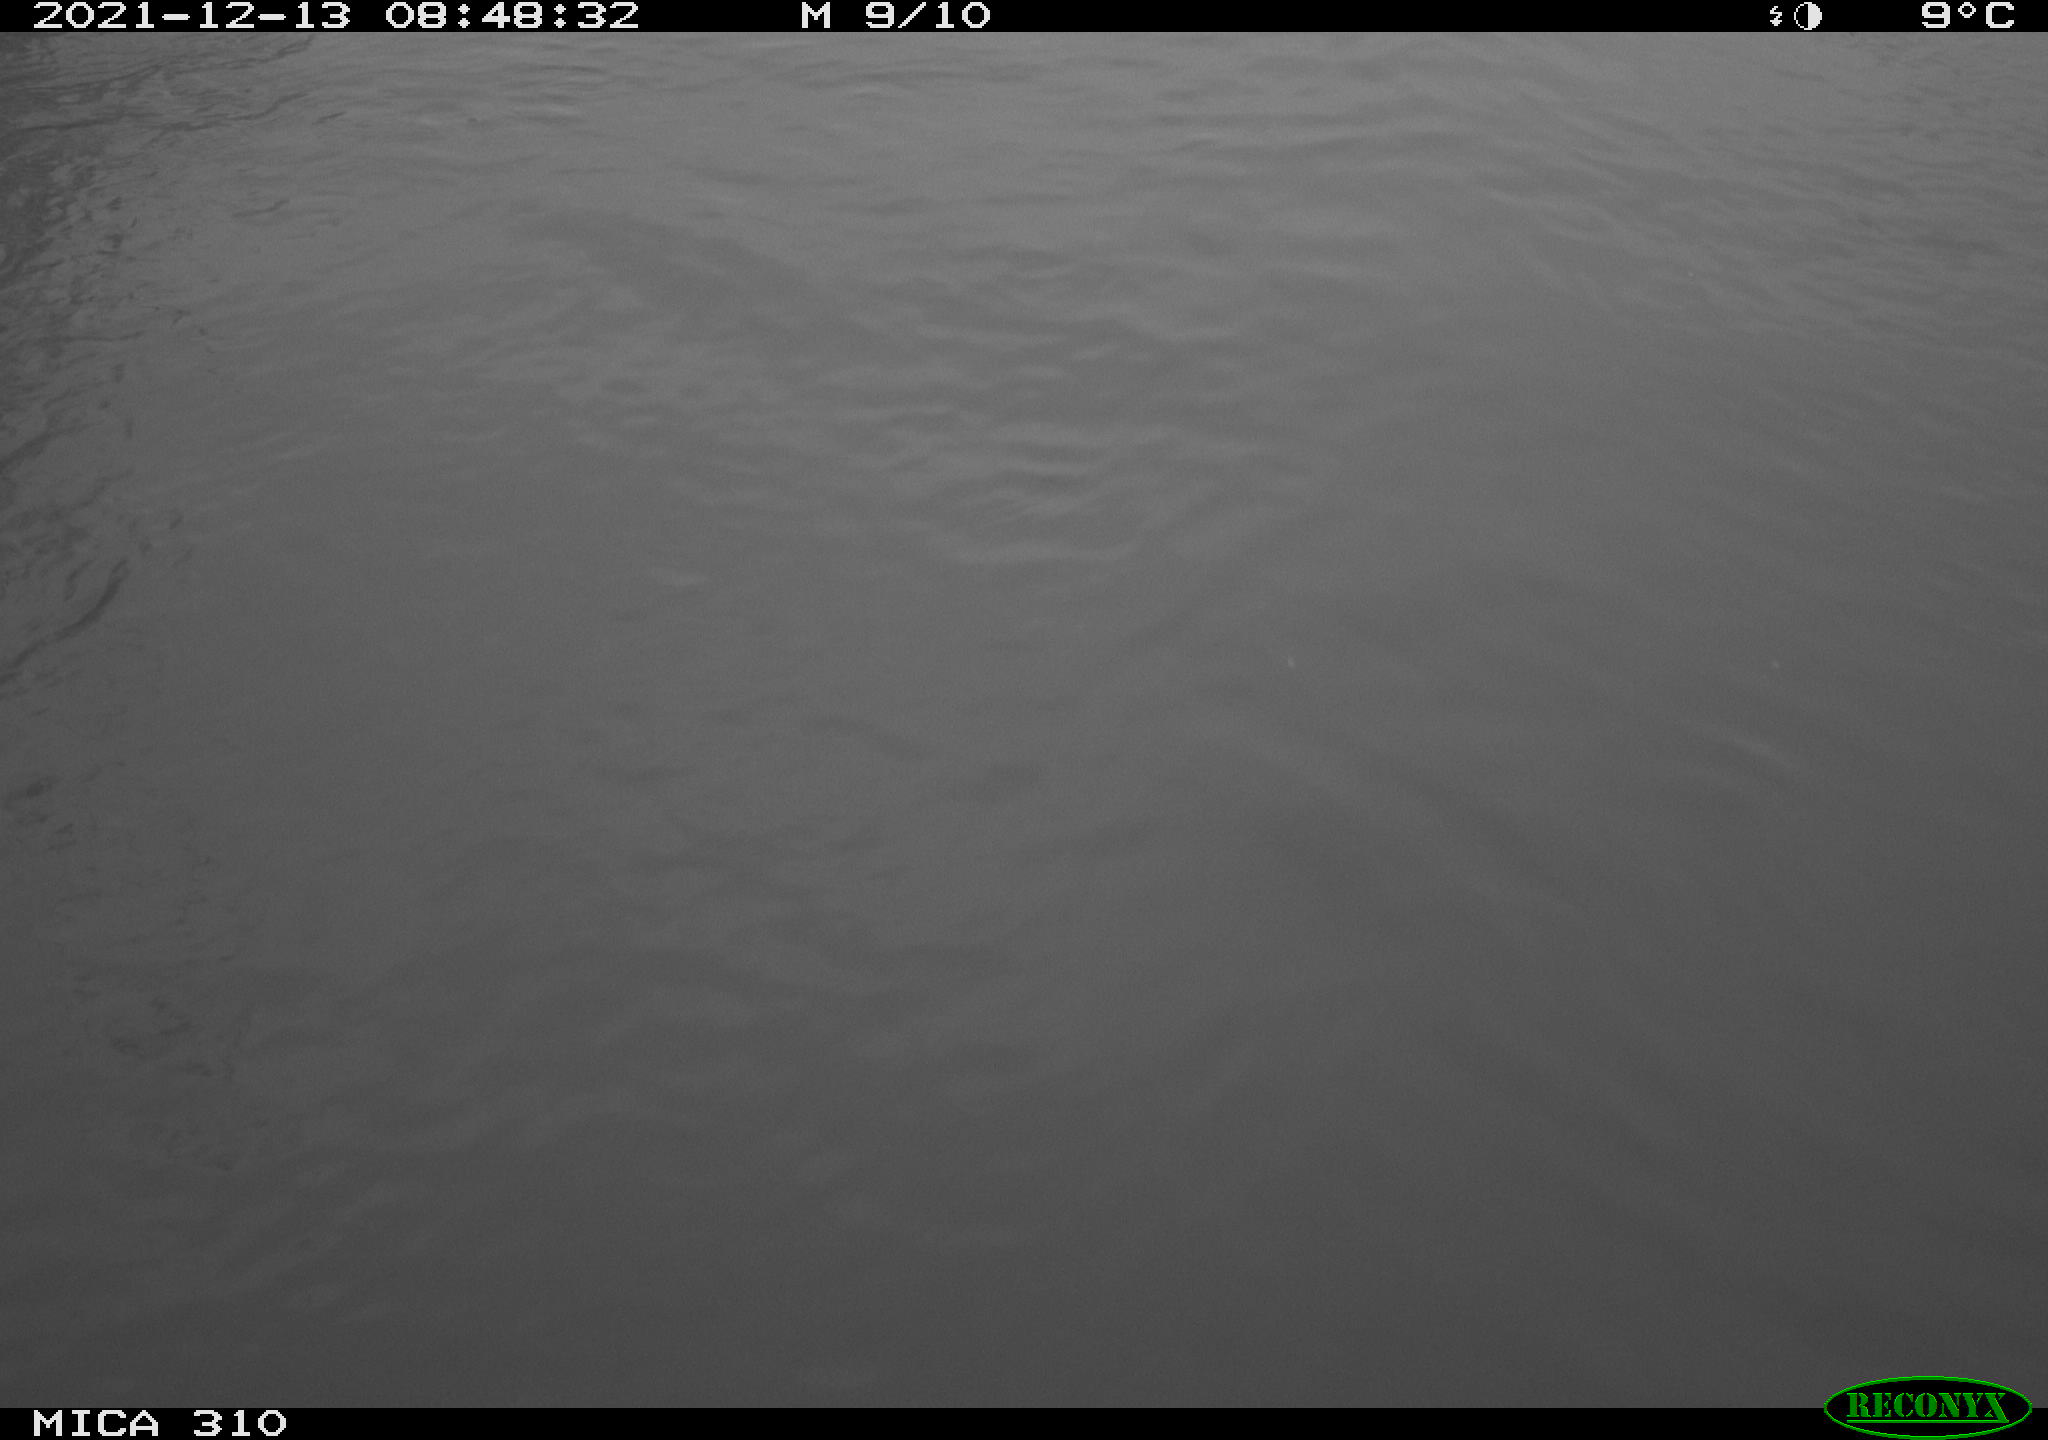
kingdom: Animalia
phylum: Chordata
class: Aves
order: Gruiformes
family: Rallidae
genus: Fulica
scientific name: Fulica atra
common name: Eurasian coot
